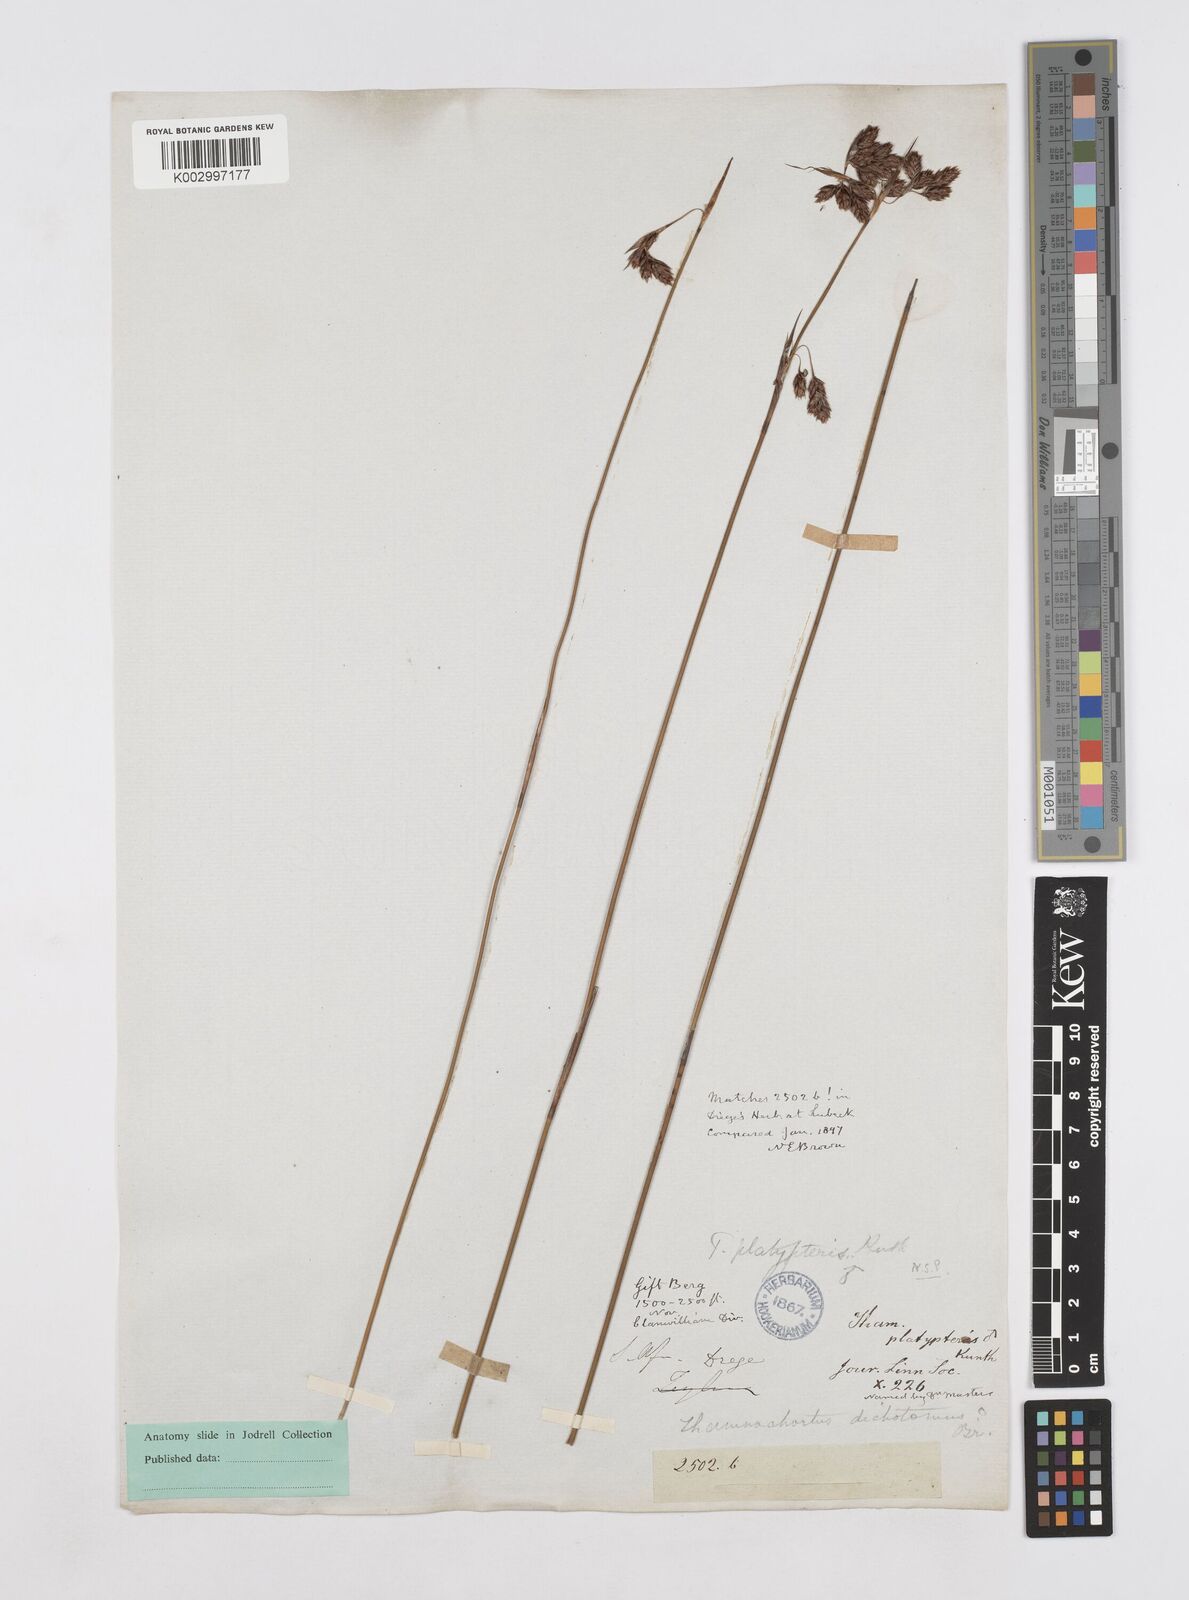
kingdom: Plantae
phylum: Tracheophyta
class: Liliopsida
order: Poales
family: Restionaceae
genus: Thamnochortus
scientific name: Thamnochortus platypteris
